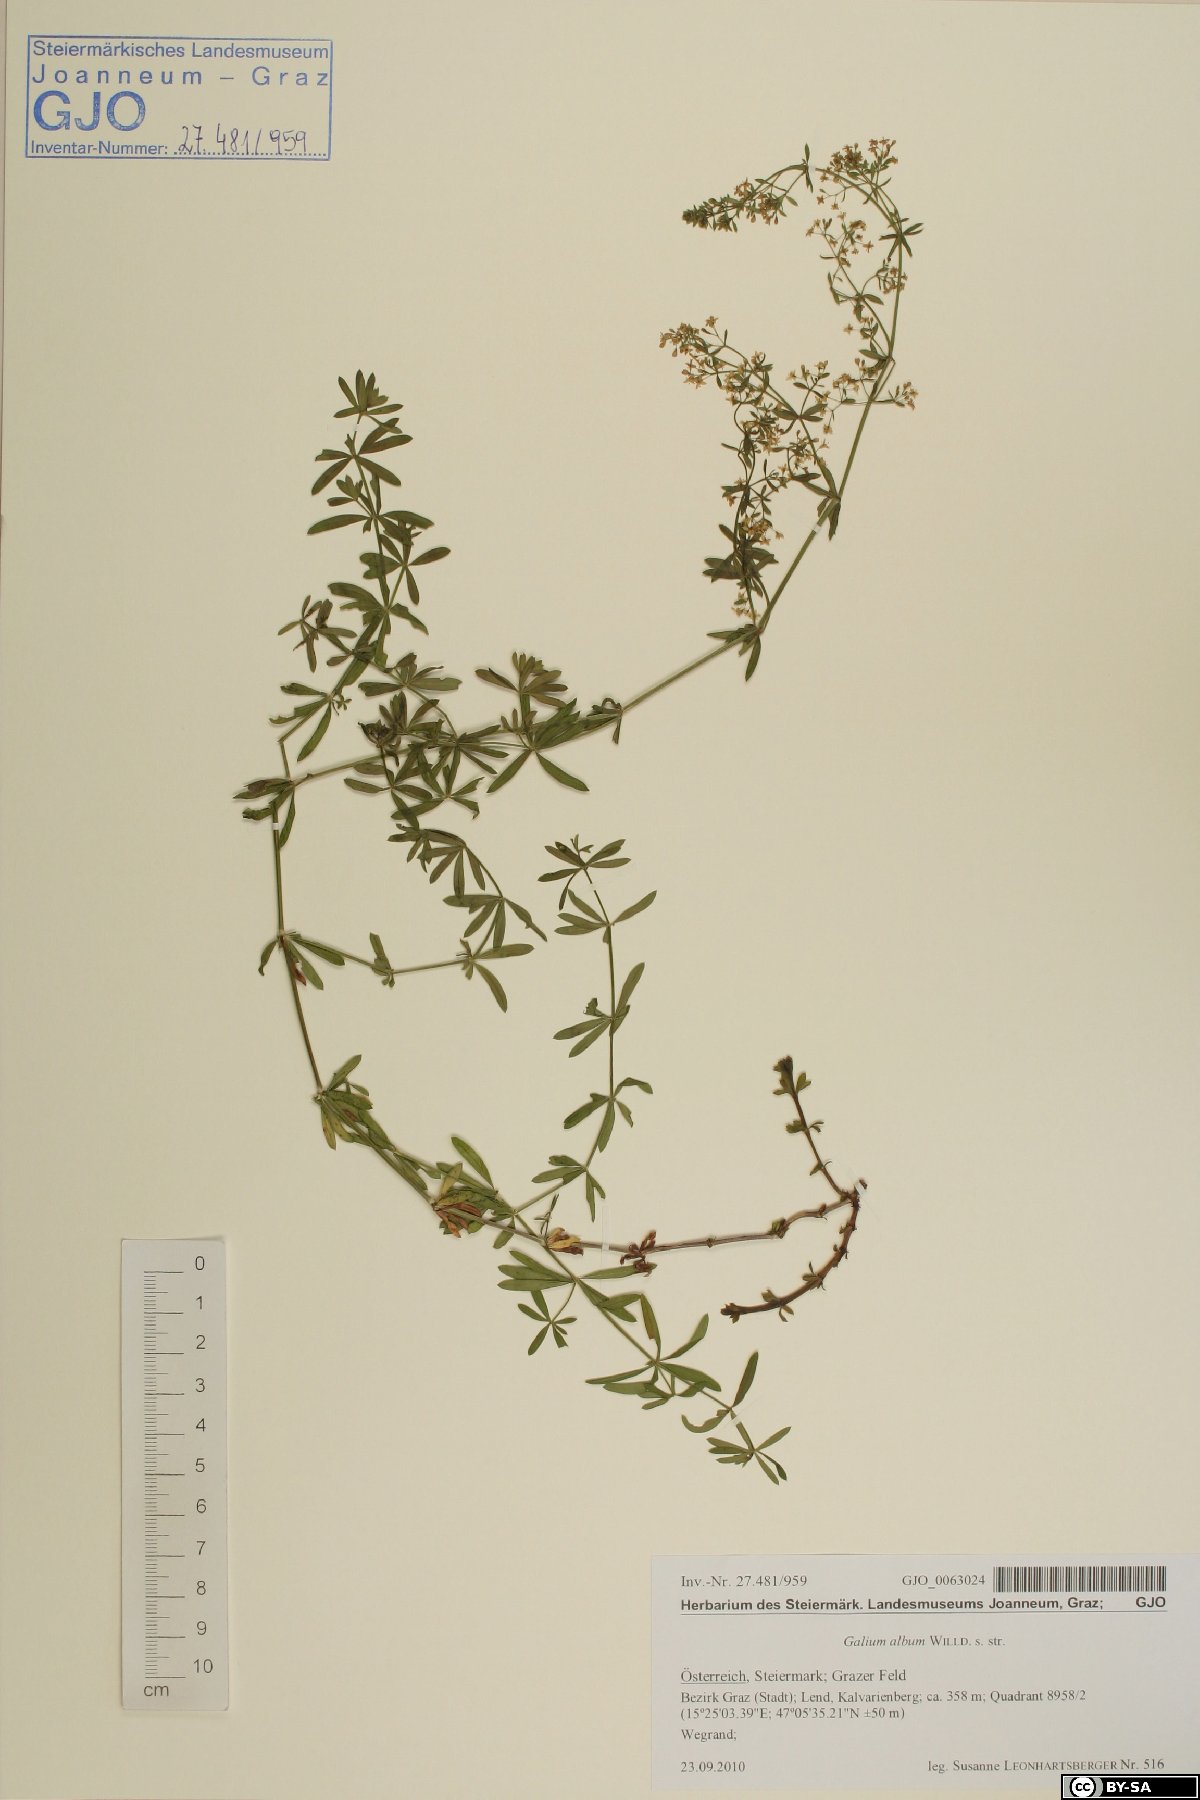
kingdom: Plantae
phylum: Tracheophyta
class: Magnoliopsida
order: Gentianales
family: Rubiaceae
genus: Galium
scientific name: Galium album
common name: White bedstraw
